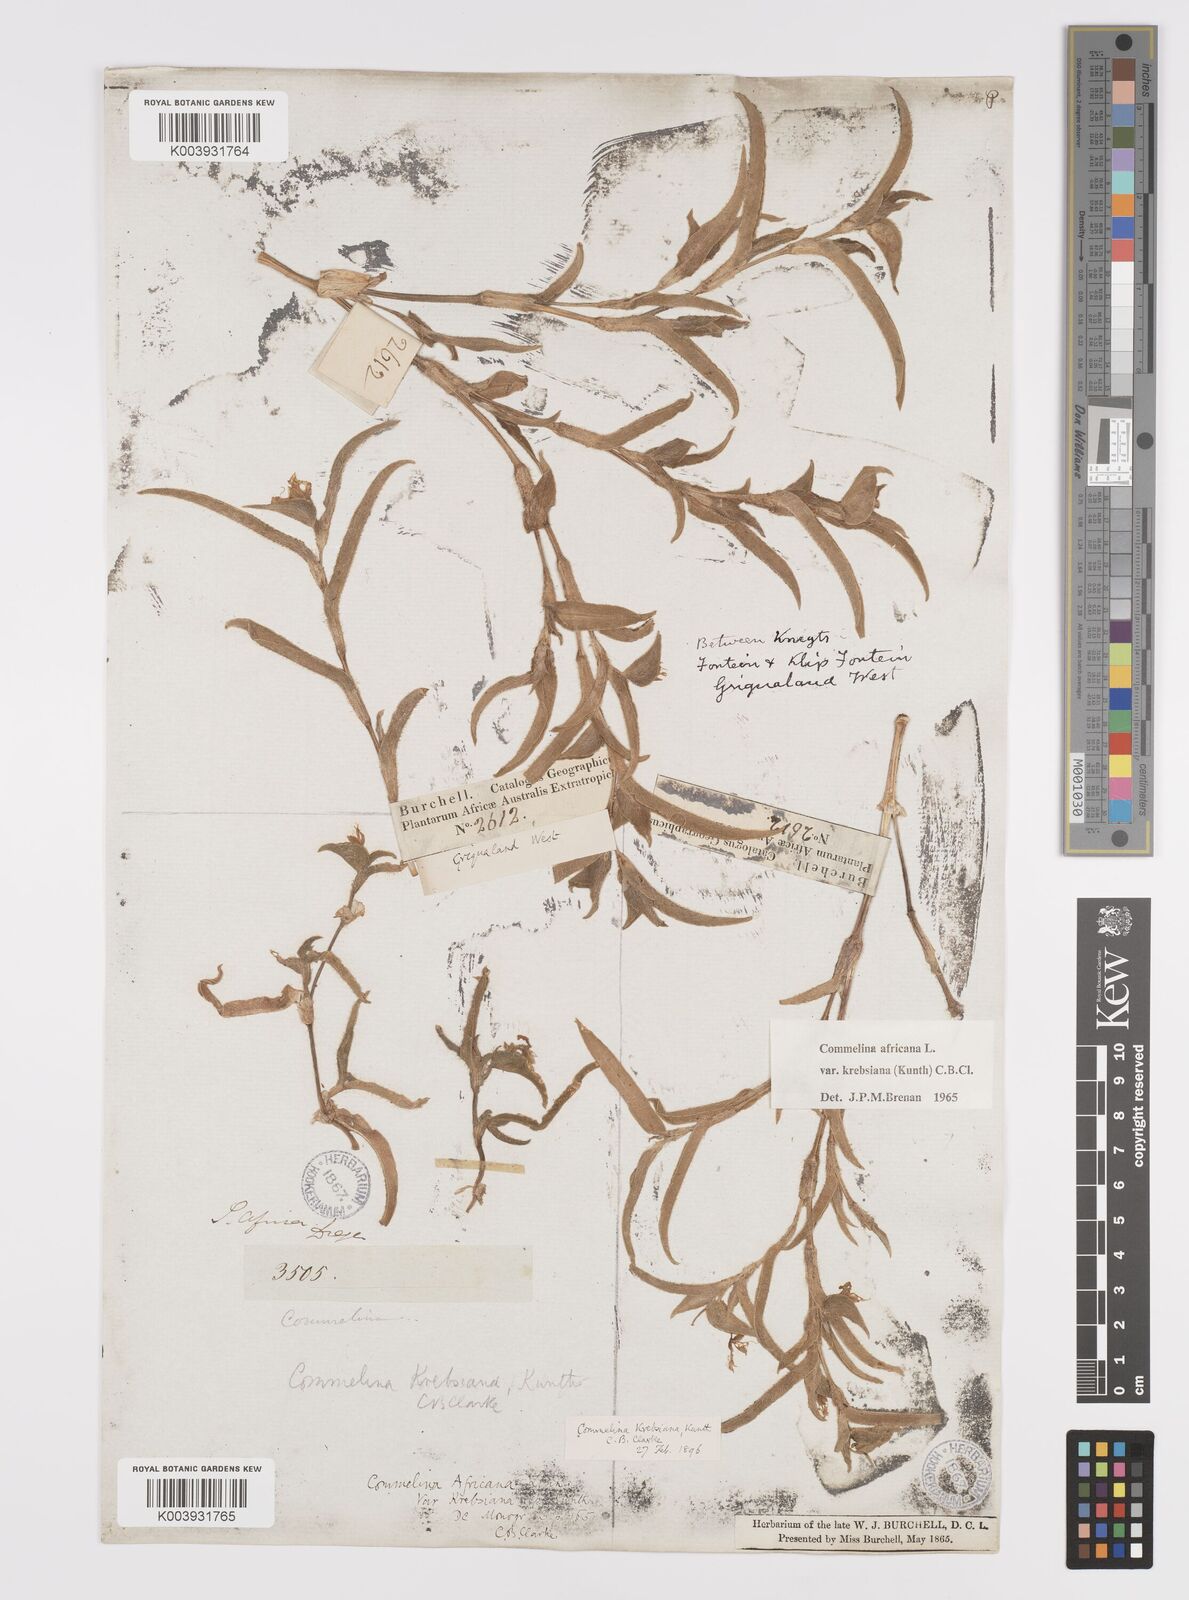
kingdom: Plantae
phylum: Tracheophyta
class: Liliopsida
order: Commelinales
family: Commelinaceae
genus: Commelina
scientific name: Commelina africana
